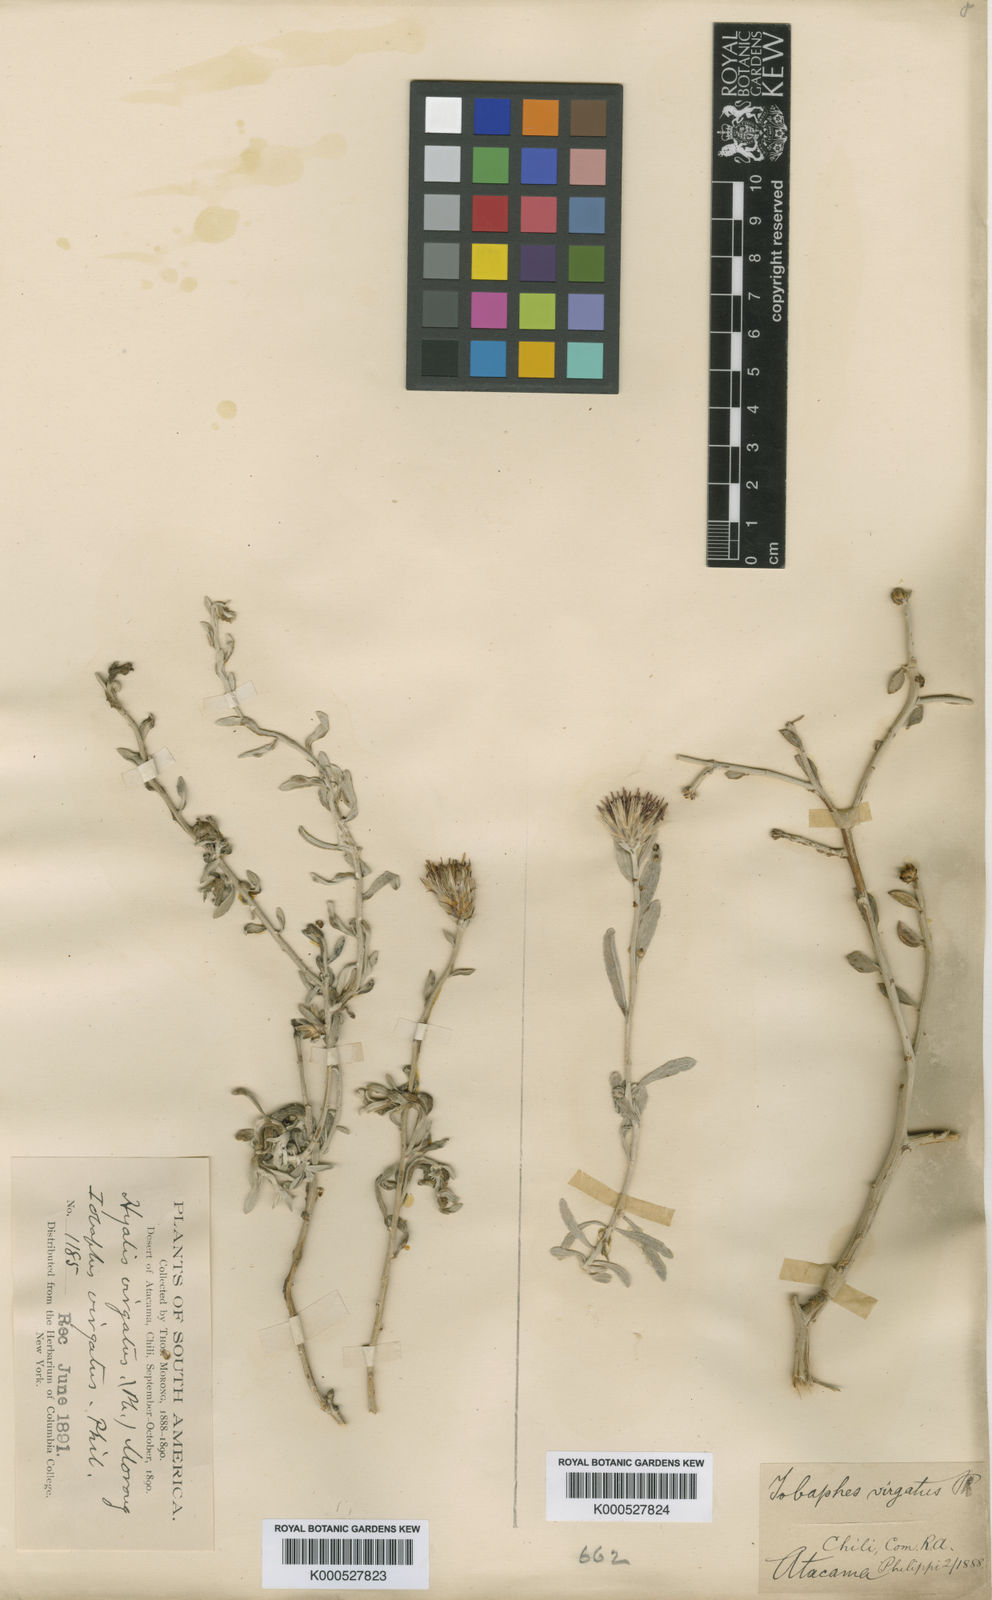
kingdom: Plantae
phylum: Tracheophyta
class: Magnoliopsida
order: Asterales
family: Asteraceae
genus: Aphyllocladus
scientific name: Aphyllocladus denticulatus
